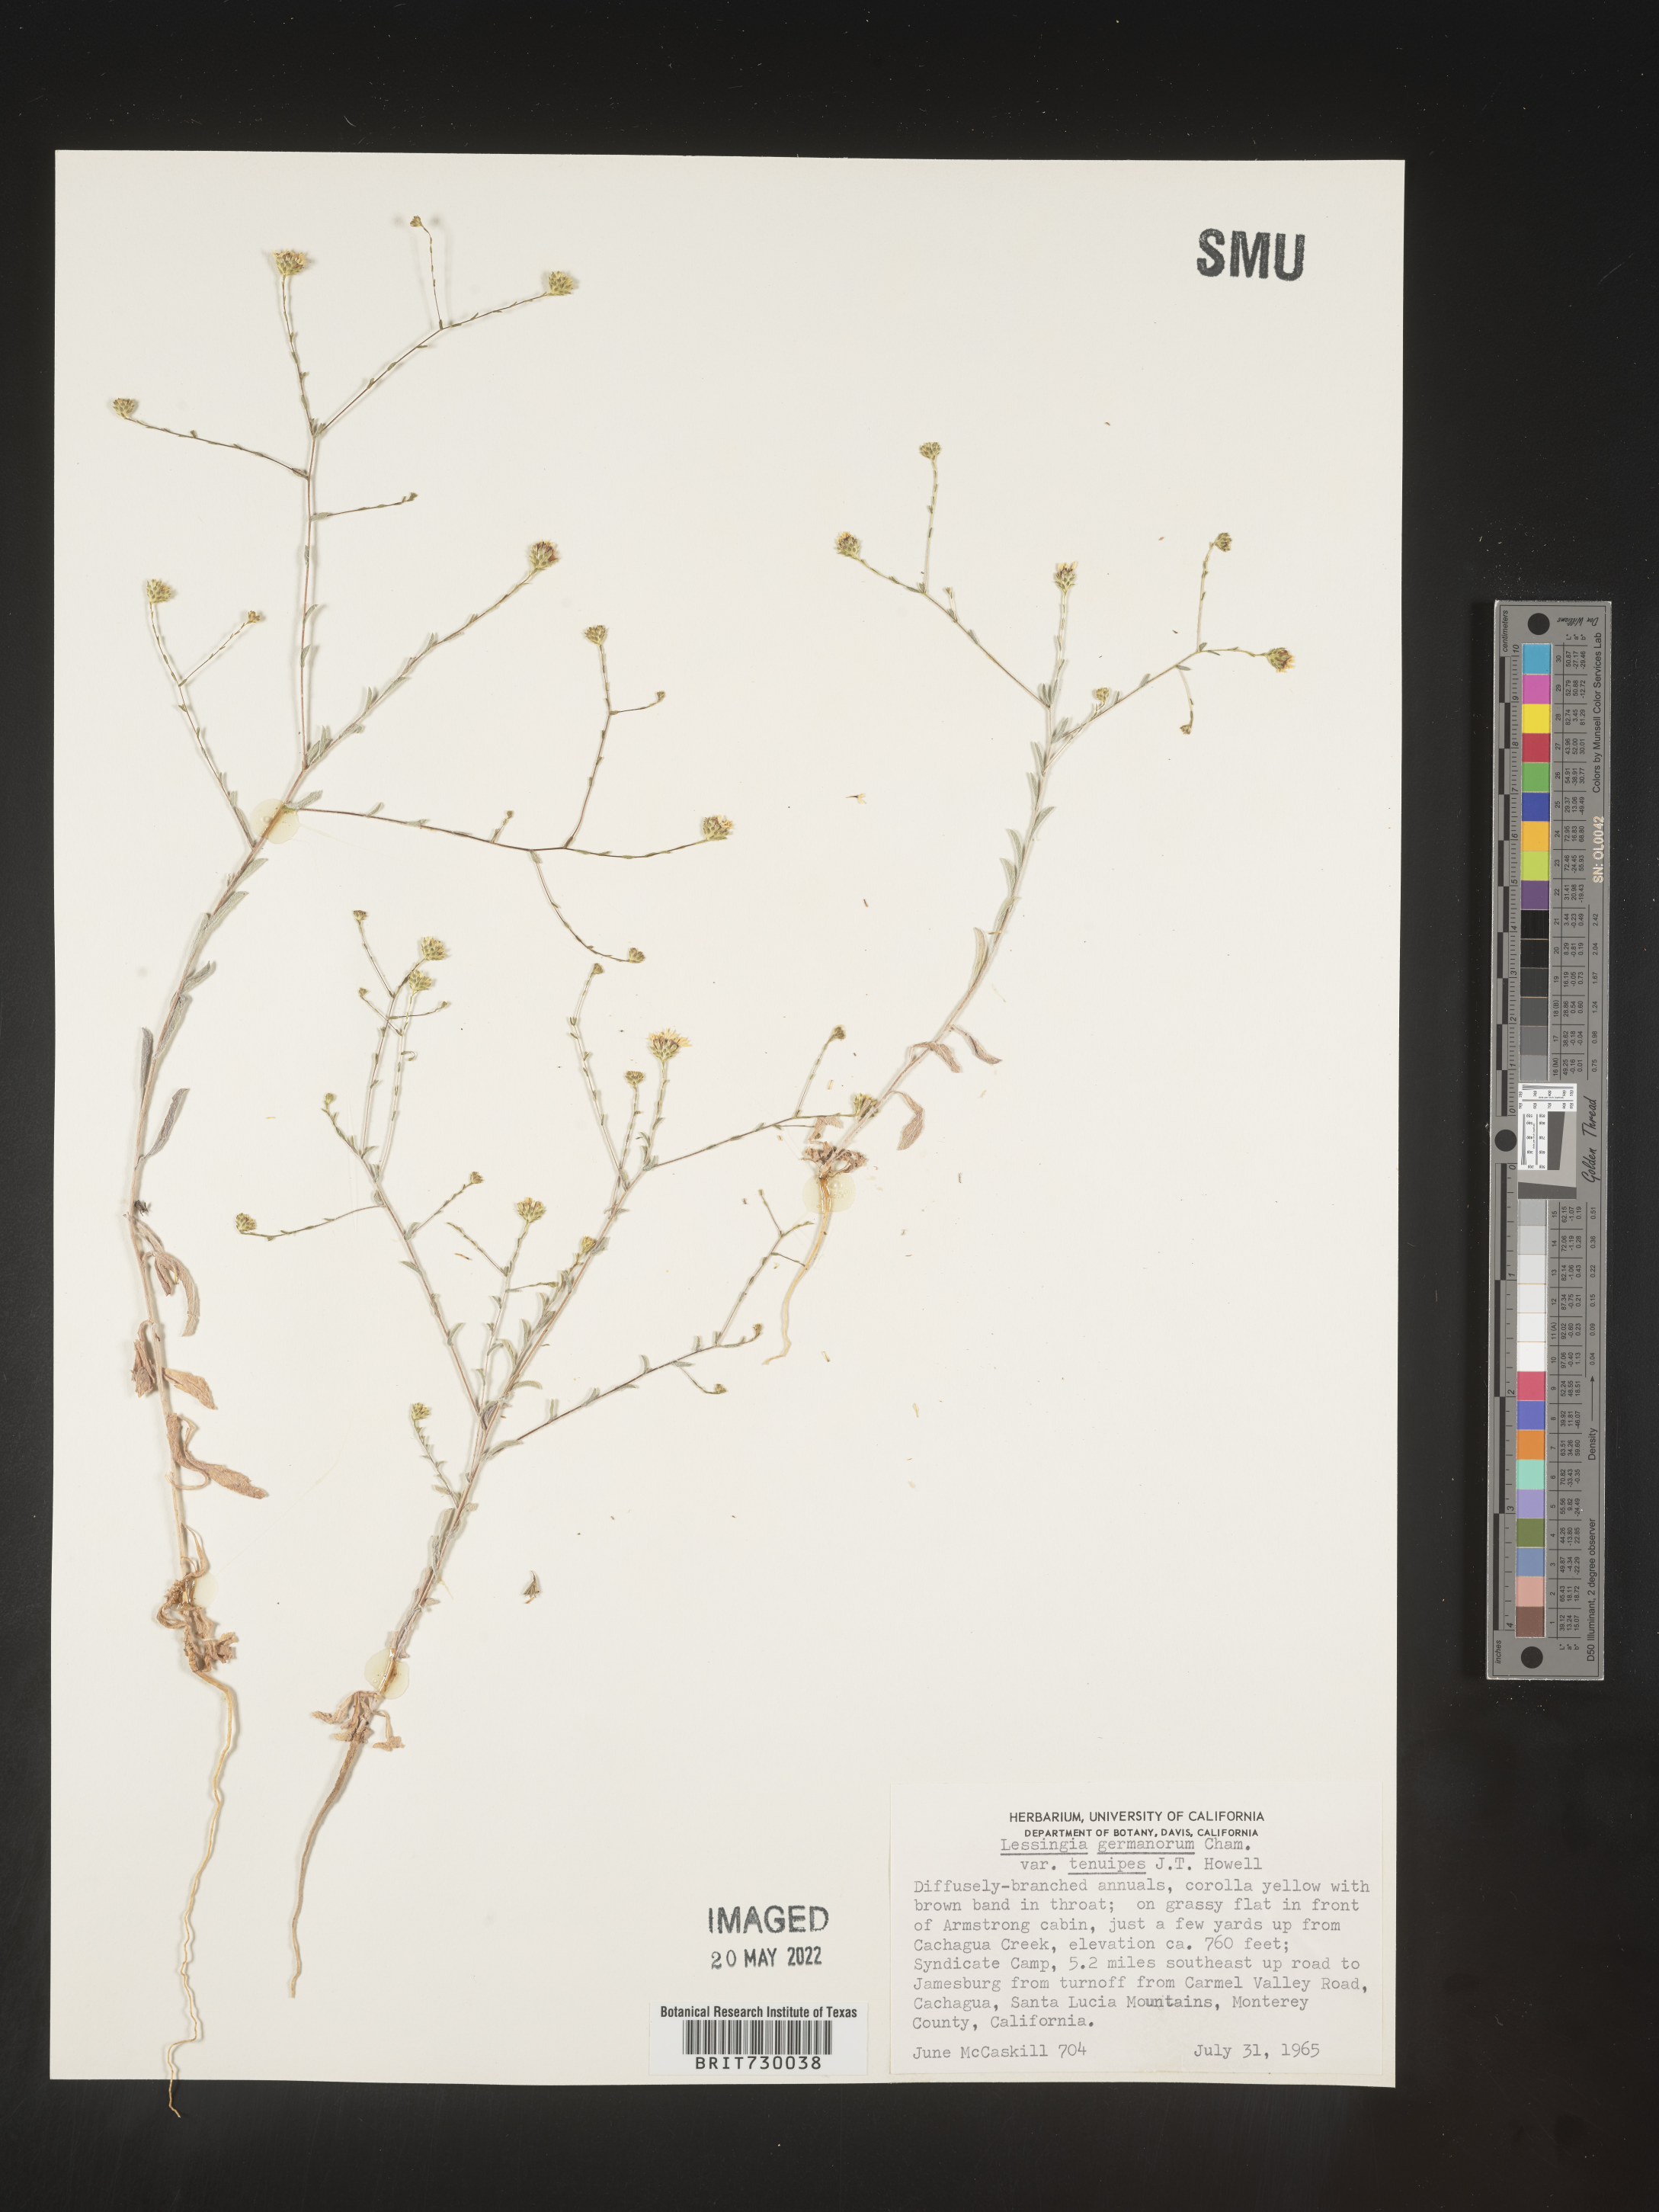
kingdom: Plantae
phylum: Tracheophyta
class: Magnoliopsida
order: Asterales
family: Asteraceae
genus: Lessingia
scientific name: Lessingia
